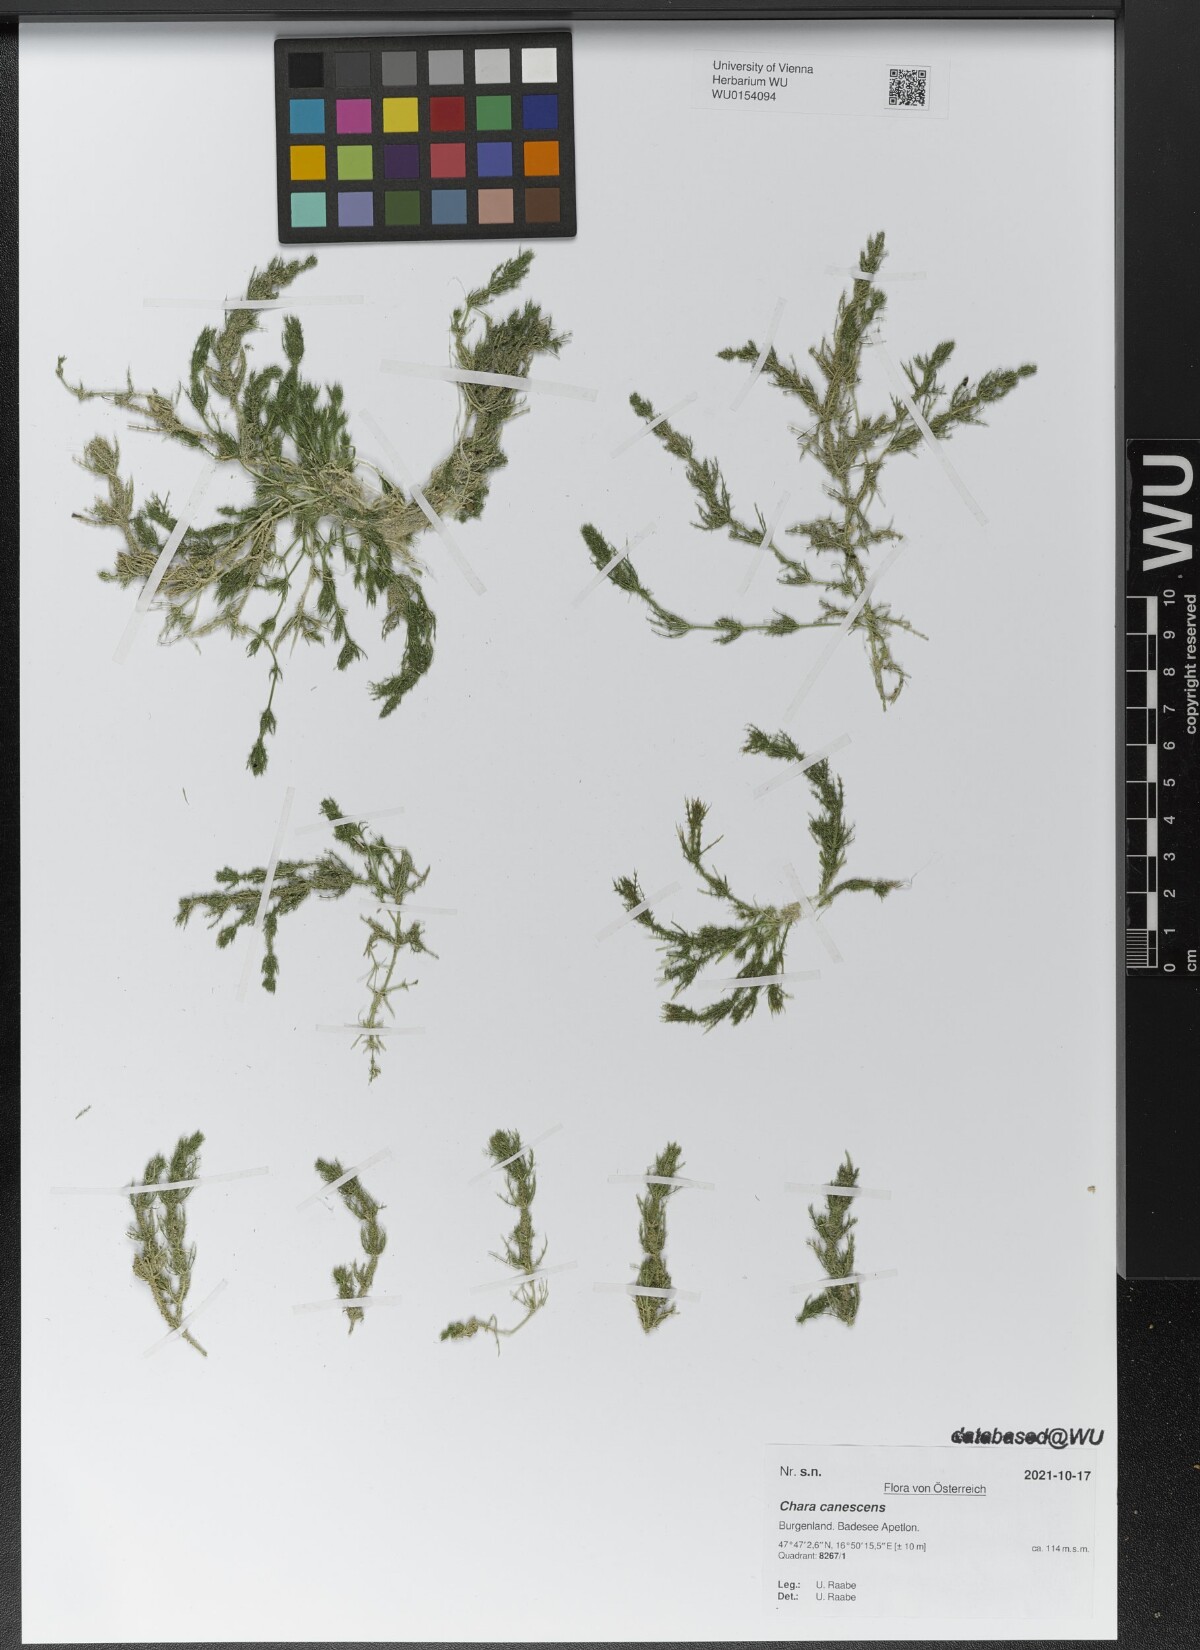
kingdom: Plantae
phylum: Charophyta
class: Charophyceae
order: Charales
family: Characeae
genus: Chara
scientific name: Chara canescens
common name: Bearded stonewort
